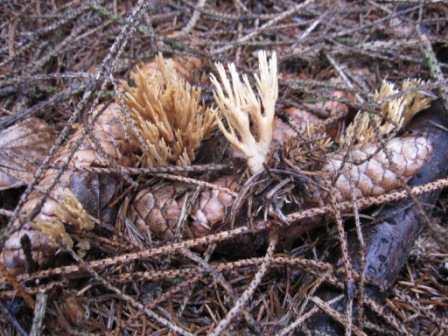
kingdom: Fungi
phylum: Basidiomycota
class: Agaricomycetes
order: Gomphales
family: Gomphaceae
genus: Phaeoclavulina
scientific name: Phaeoclavulina eumorpha
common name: gran-koralsvamp
